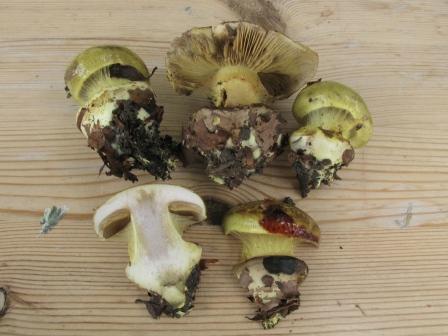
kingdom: Fungi
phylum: Basidiomycota
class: Agaricomycetes
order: Agaricales
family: Cortinariaceae
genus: Calonarius
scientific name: Calonarius odoratus
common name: krydret slørhat
